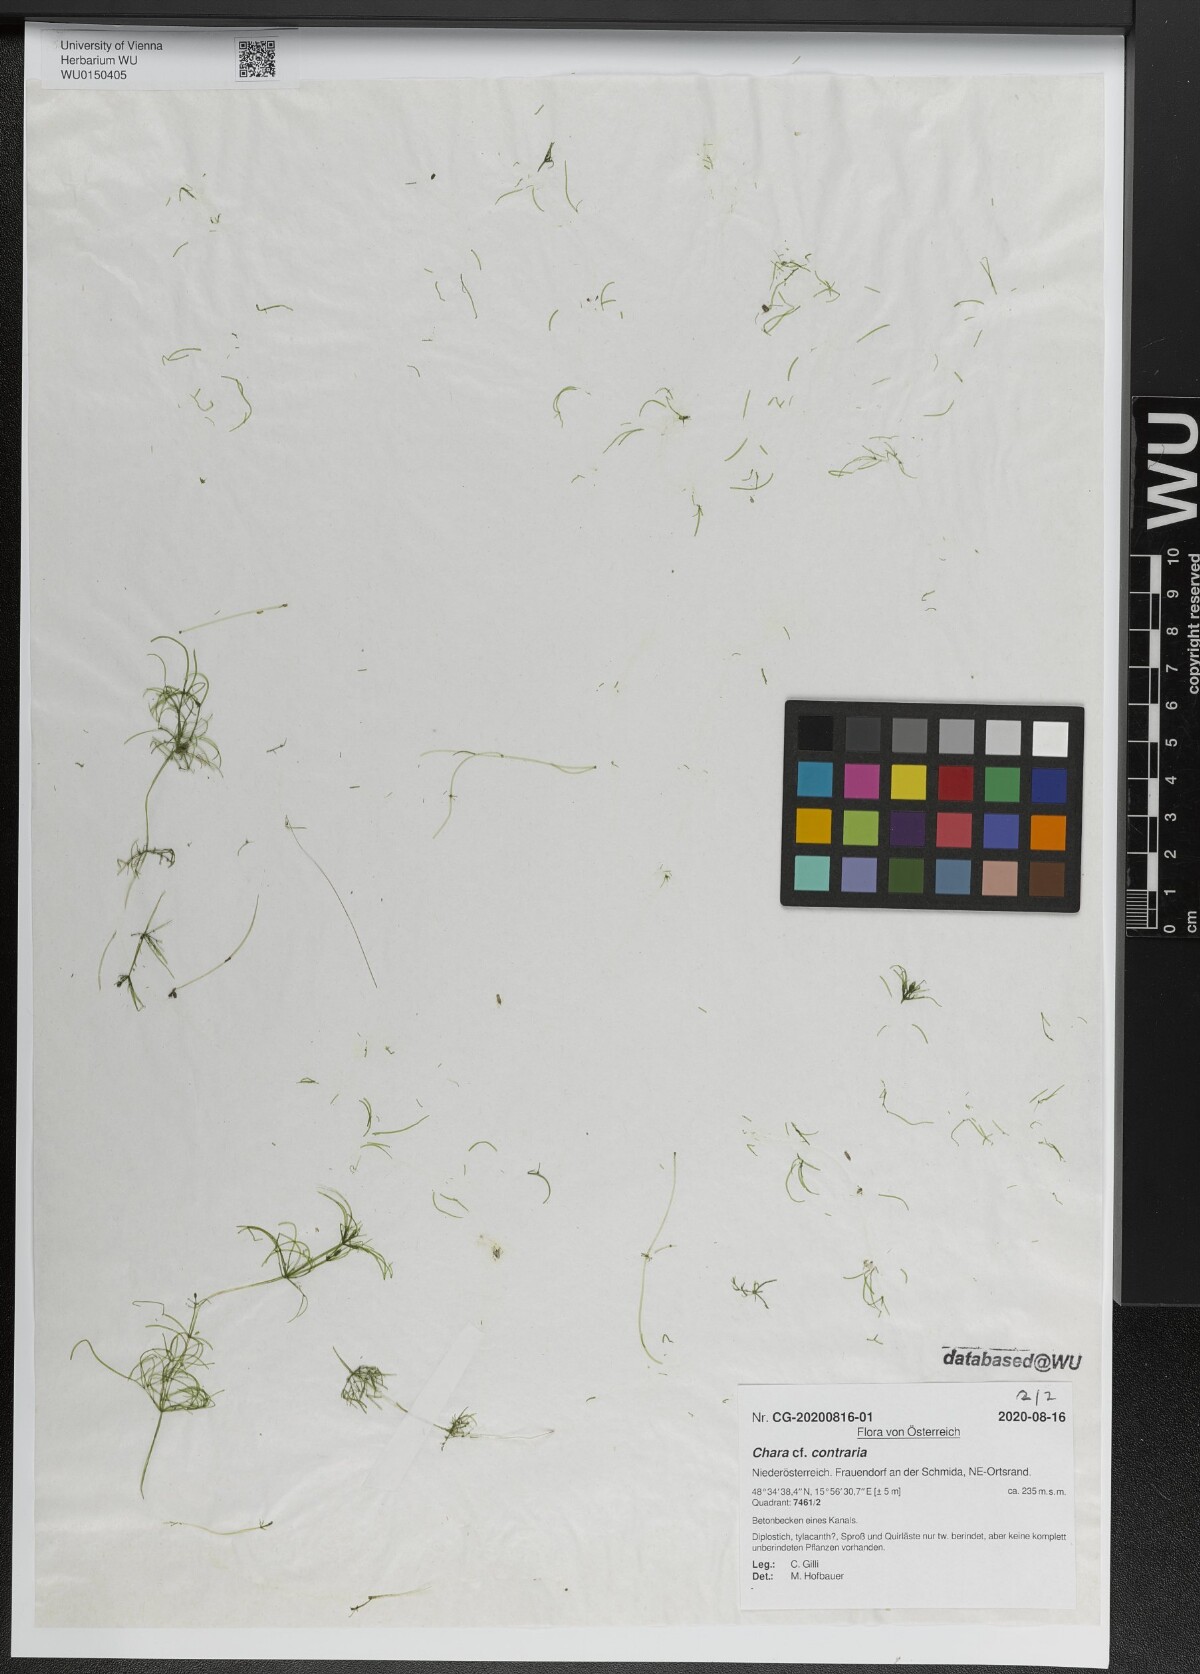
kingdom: Plantae
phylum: Charophyta
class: Charophyceae
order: Charales
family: Characeae
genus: Chara
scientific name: Chara contraria
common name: Opposite stonewort
